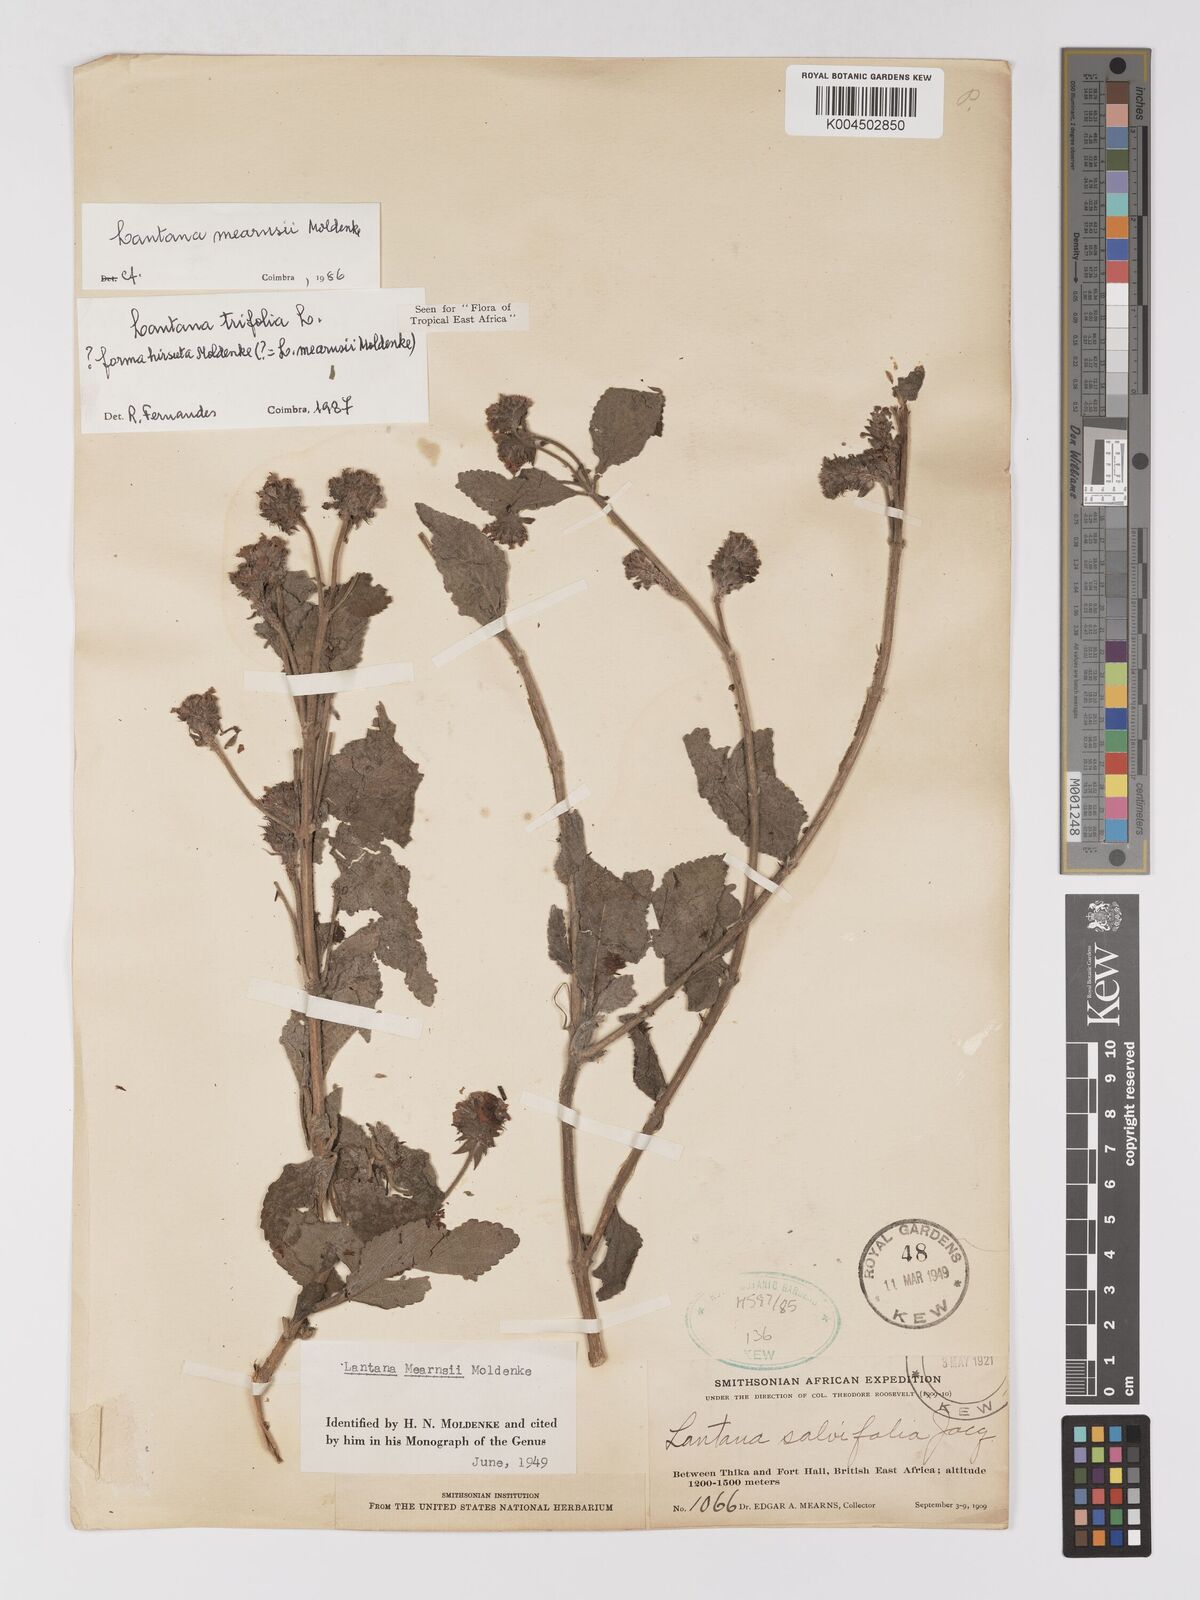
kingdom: Plantae
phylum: Tracheophyta
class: Magnoliopsida
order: Lamiales
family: Verbenaceae
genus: Lantana
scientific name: Lantana trifolia
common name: Sweet-sage
